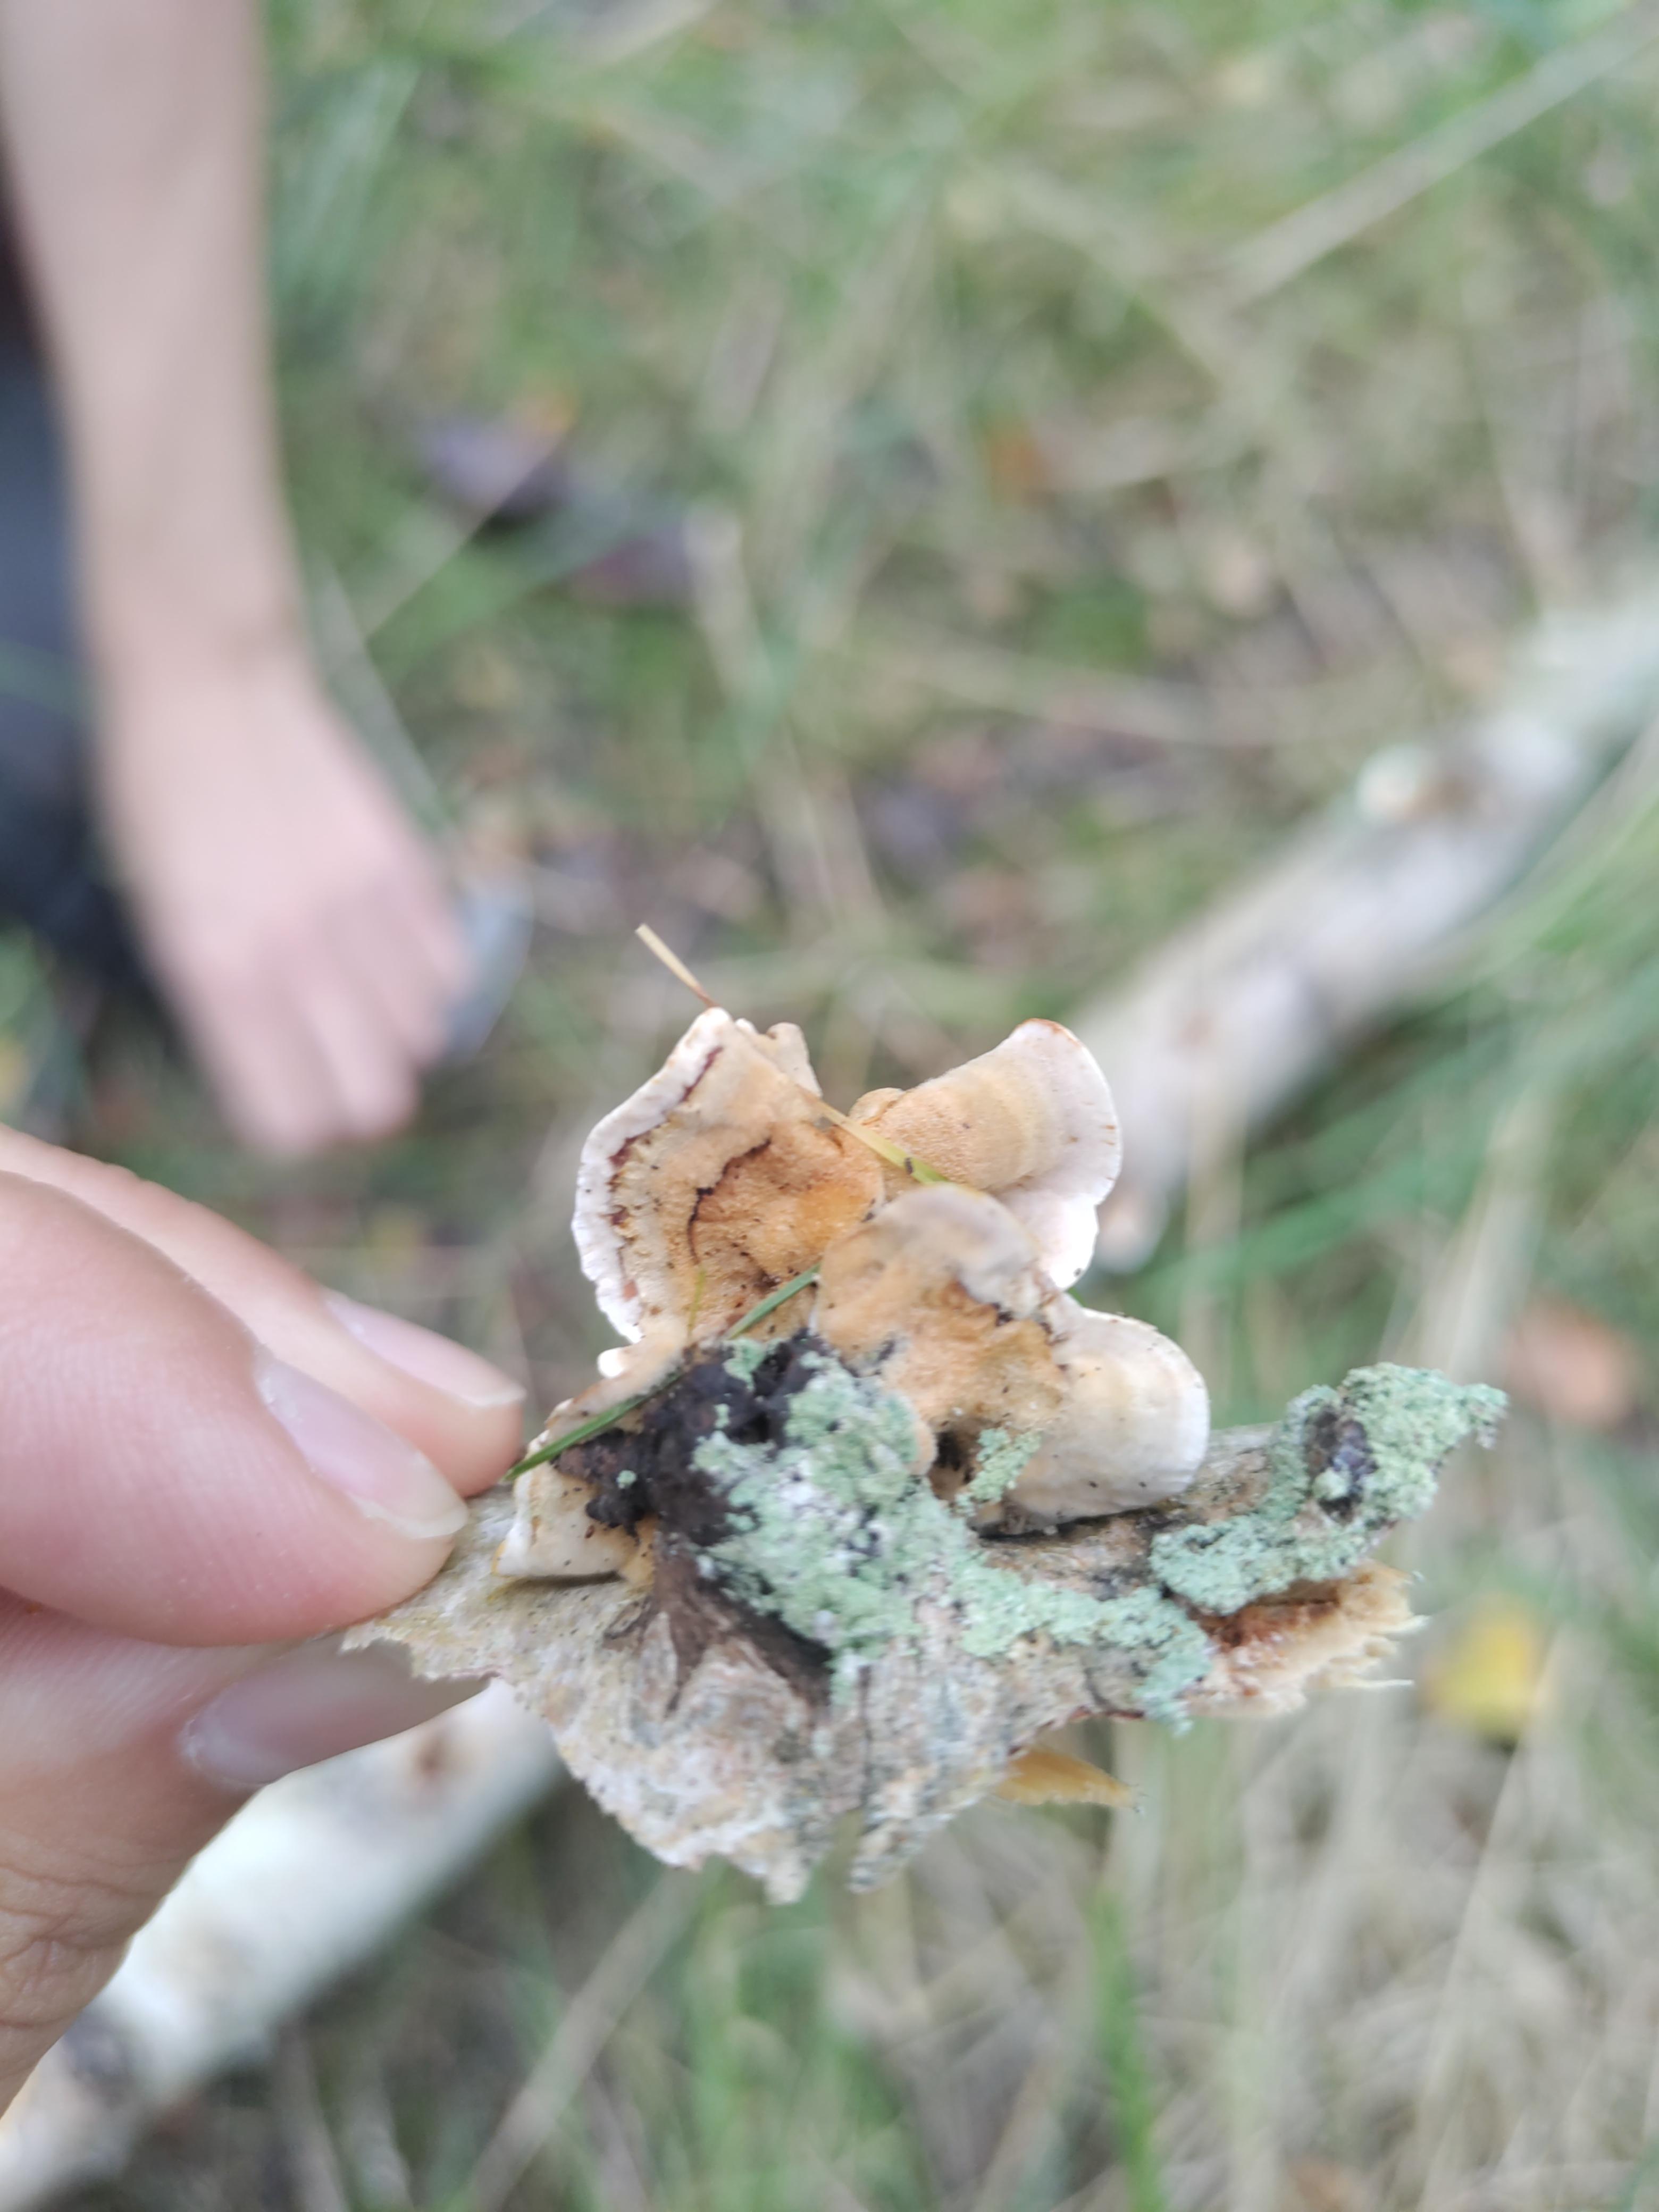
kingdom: Fungi
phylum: Basidiomycota
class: Agaricomycetes
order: Russulales
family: Stereaceae
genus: Stereum
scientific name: Stereum
